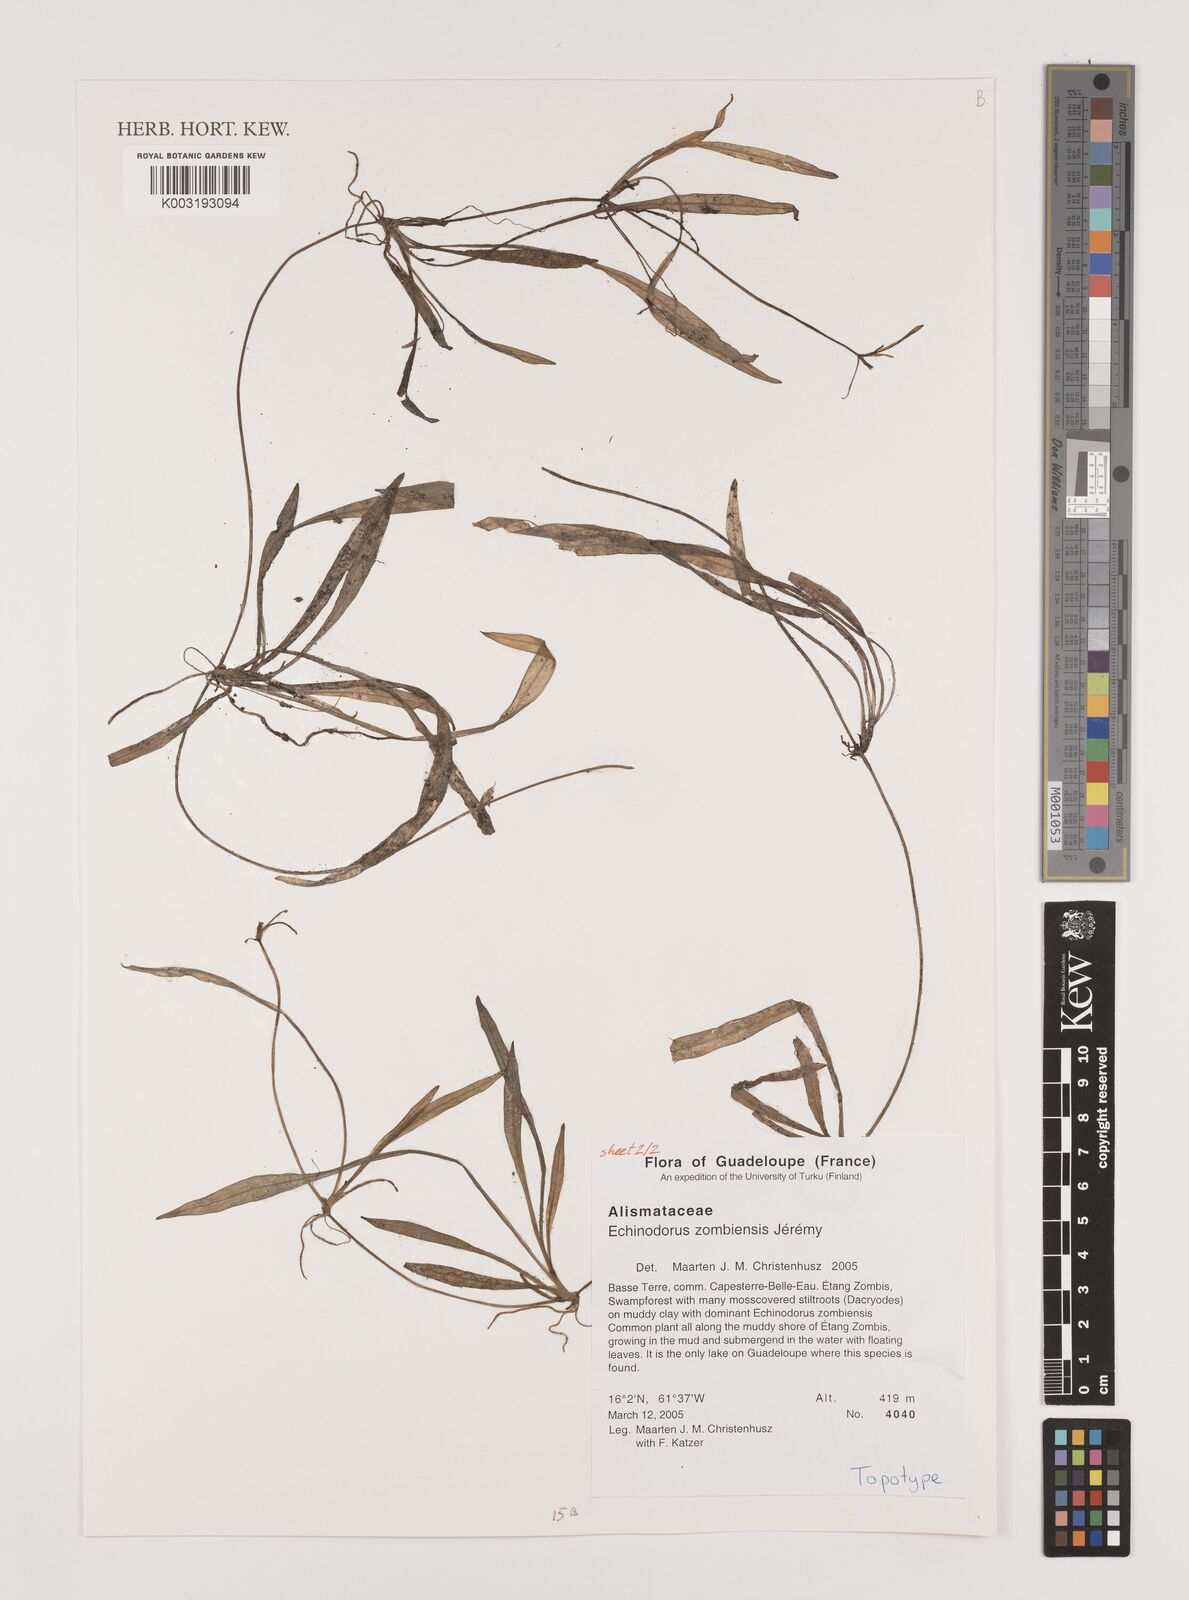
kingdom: Plantae
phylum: Tracheophyta
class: Liliopsida
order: Alismatales
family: Alismataceae
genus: Helanthium
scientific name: Helanthium zombiense
